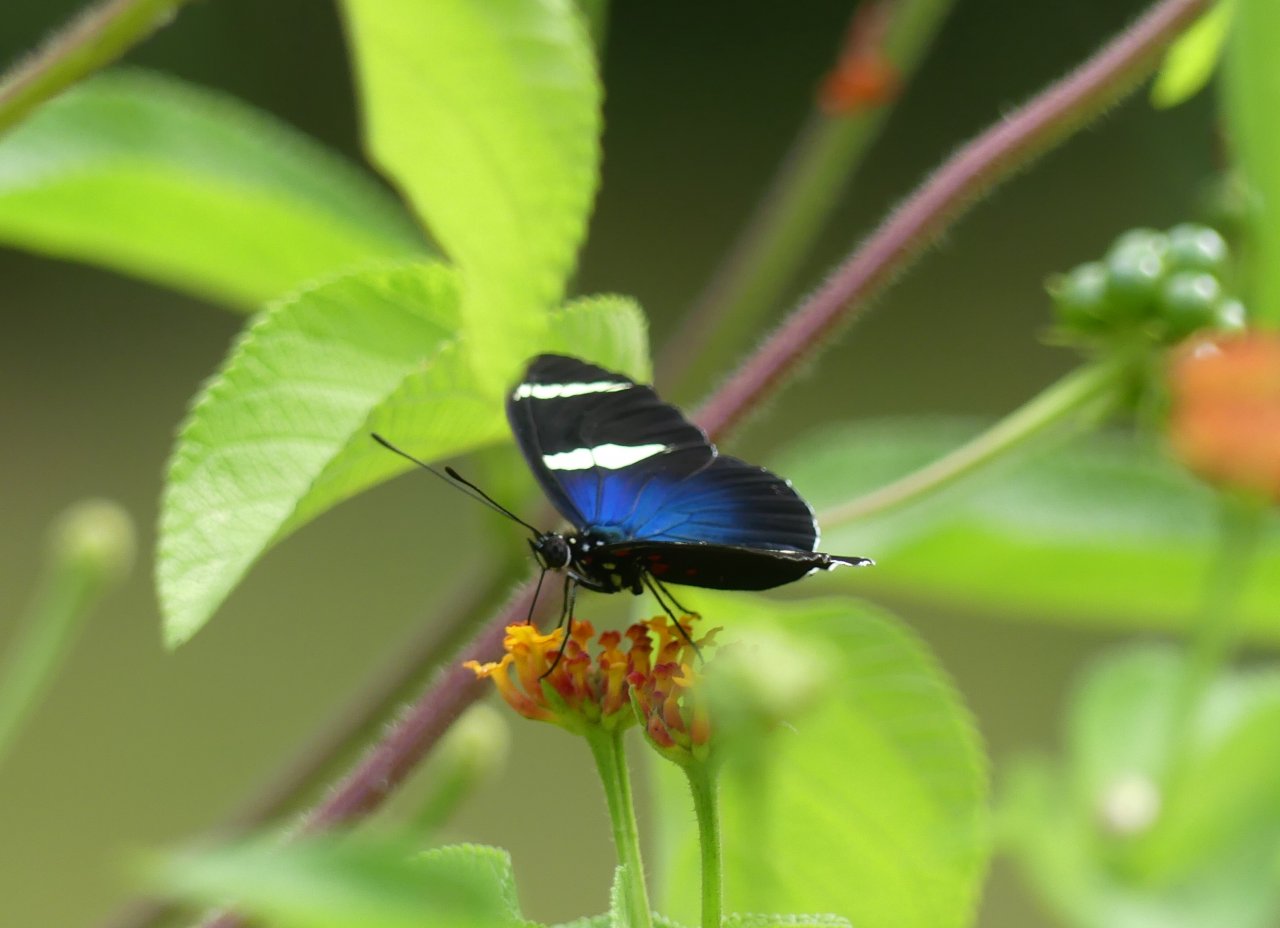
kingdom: Animalia
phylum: Arthropoda
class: Insecta
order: Lepidoptera
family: Nymphalidae
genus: Heliconius
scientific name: Heliconius sara
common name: Sara Longwing
